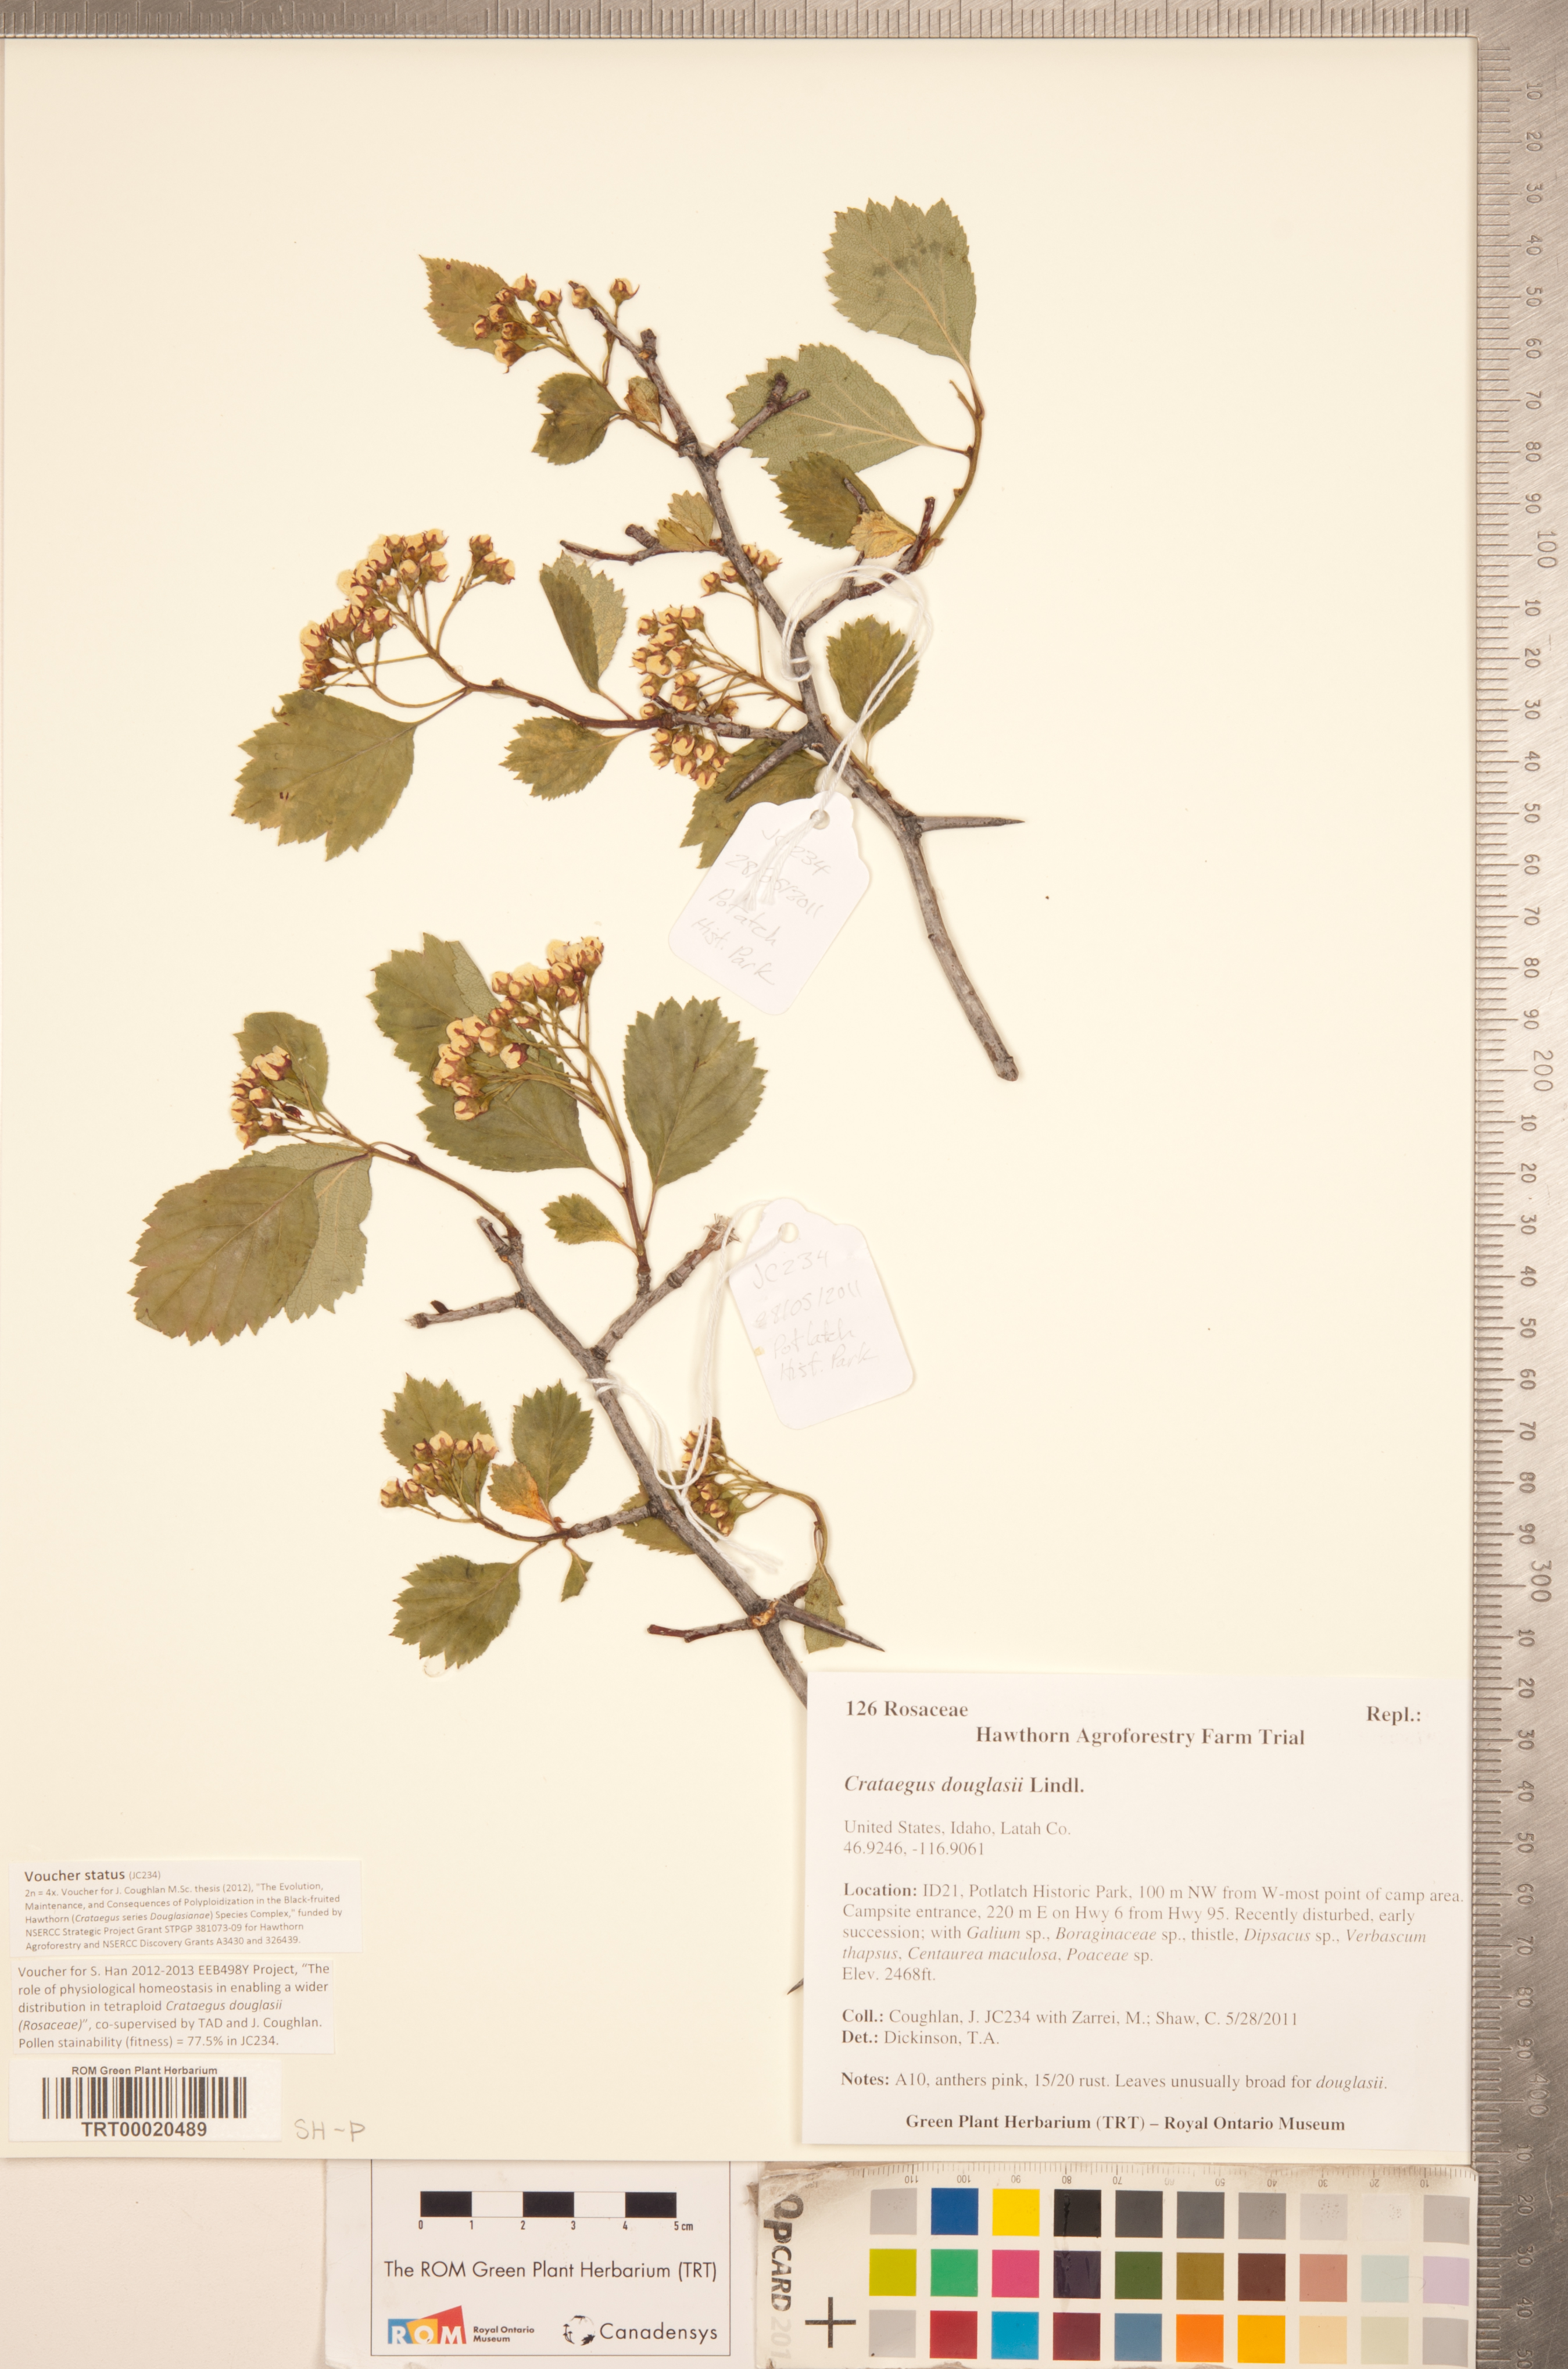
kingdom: Plantae
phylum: Tracheophyta
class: Magnoliopsida
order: Rosales
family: Rosaceae
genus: Crataegus
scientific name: Crataegus douglasii
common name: Black hawthorn
